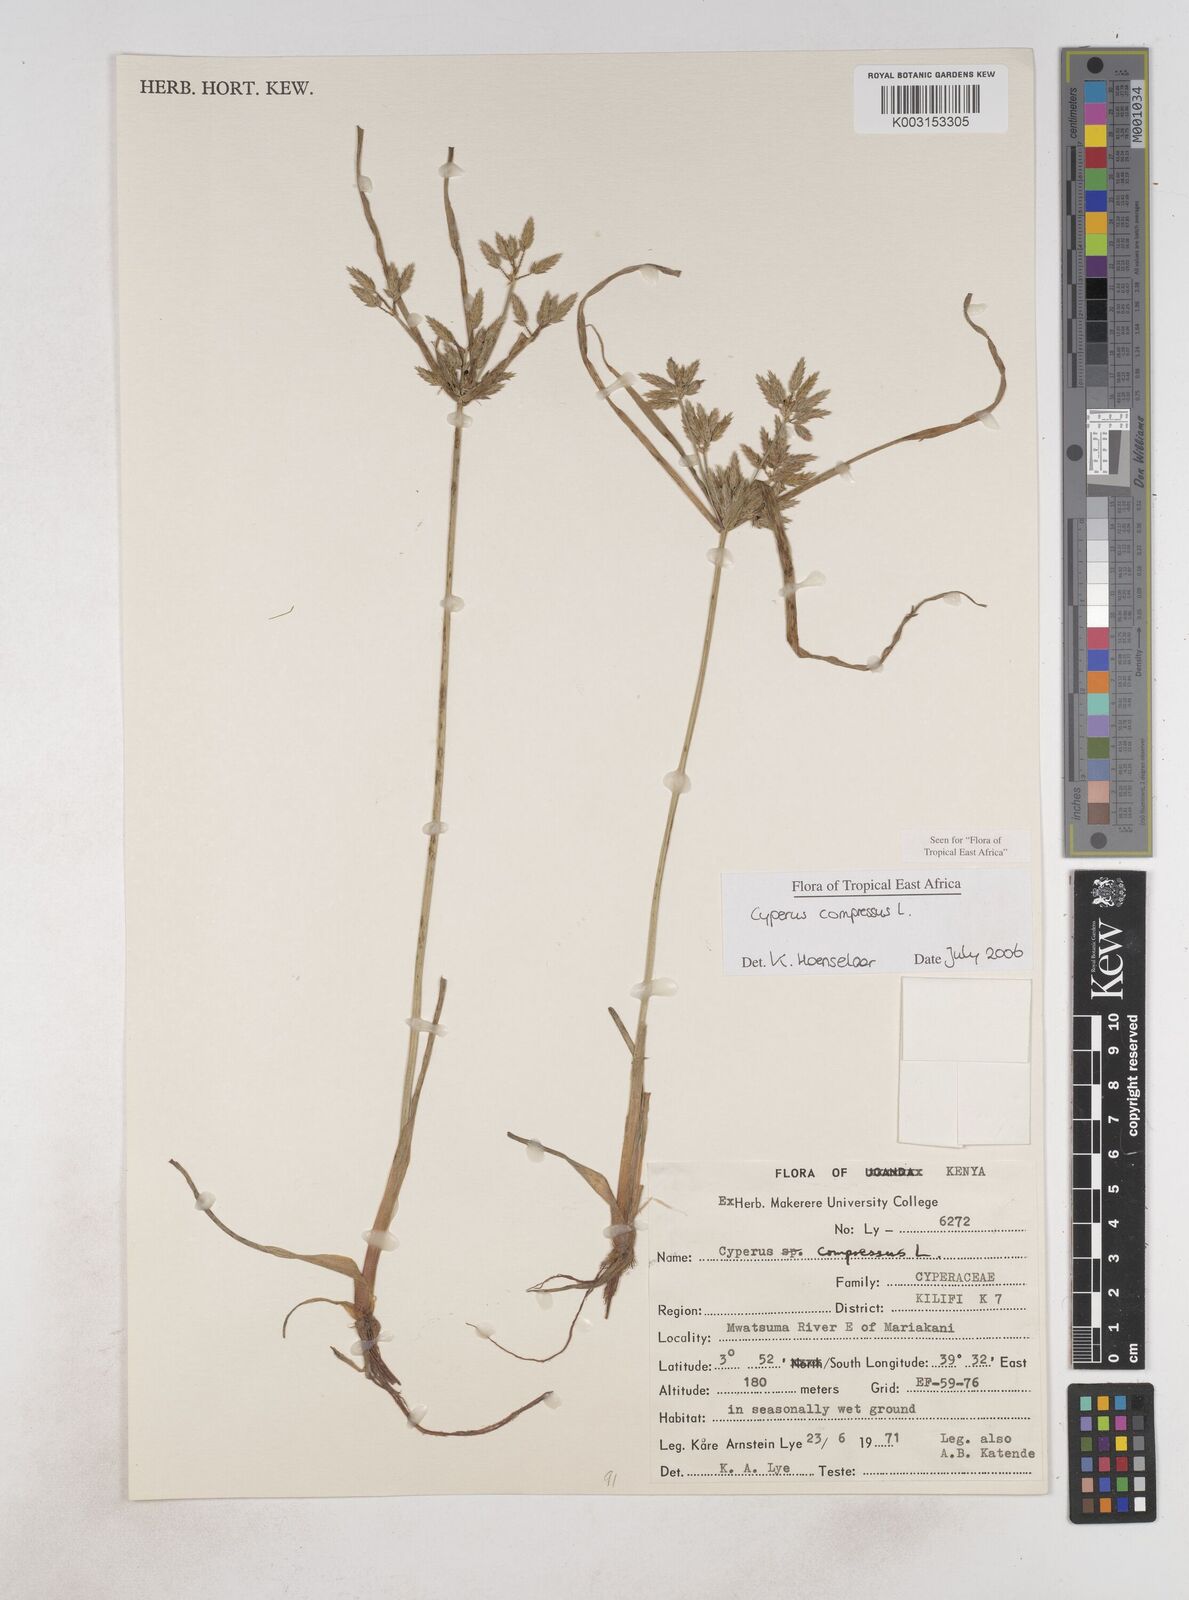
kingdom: Plantae
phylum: Tracheophyta
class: Liliopsida
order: Poales
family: Cyperaceae
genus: Cyperus
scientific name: Cyperus compressus
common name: Poorland flatsedge
